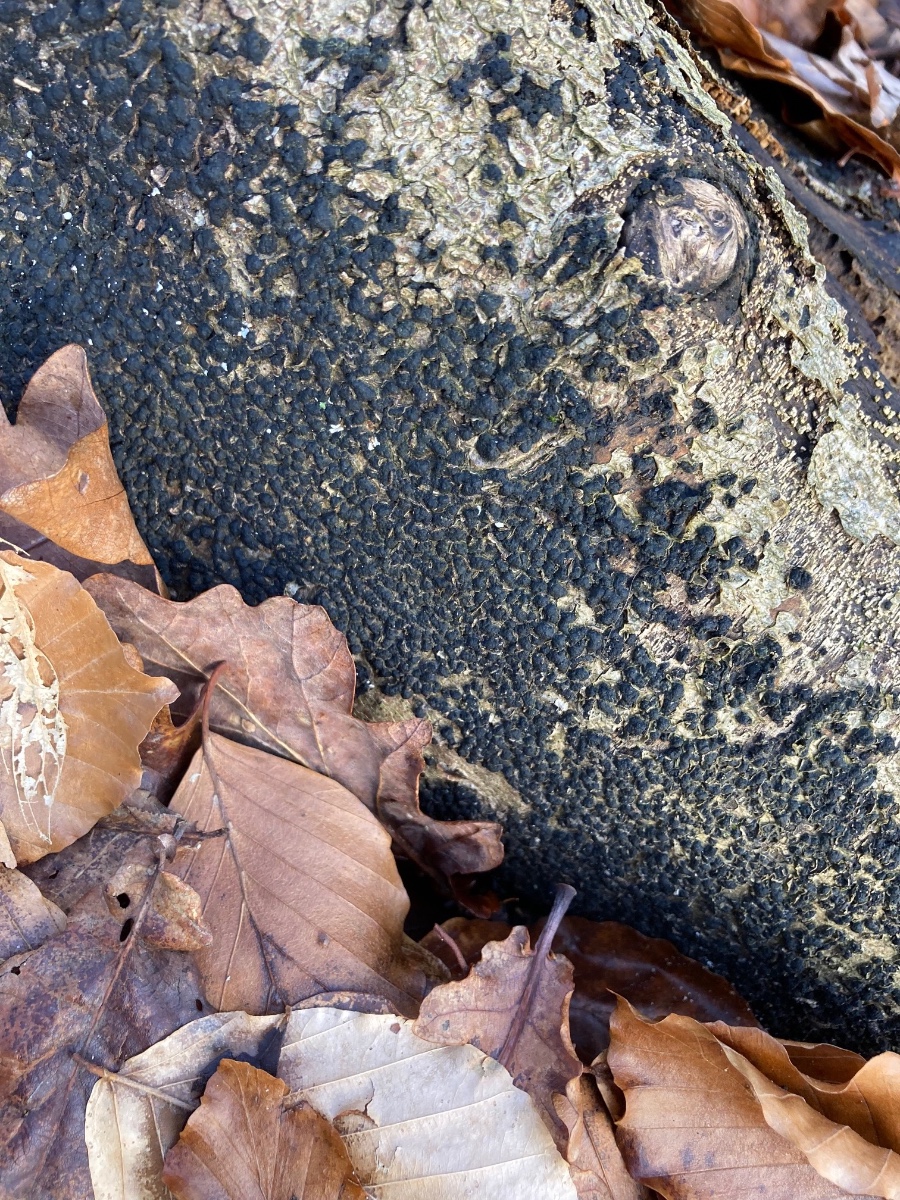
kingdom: Fungi
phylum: Ascomycota
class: Sordariomycetes
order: Xylariales
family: Melogrammataceae
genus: Melogramma
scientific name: Melogramma spiniferum
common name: bøgefod-kulhals
